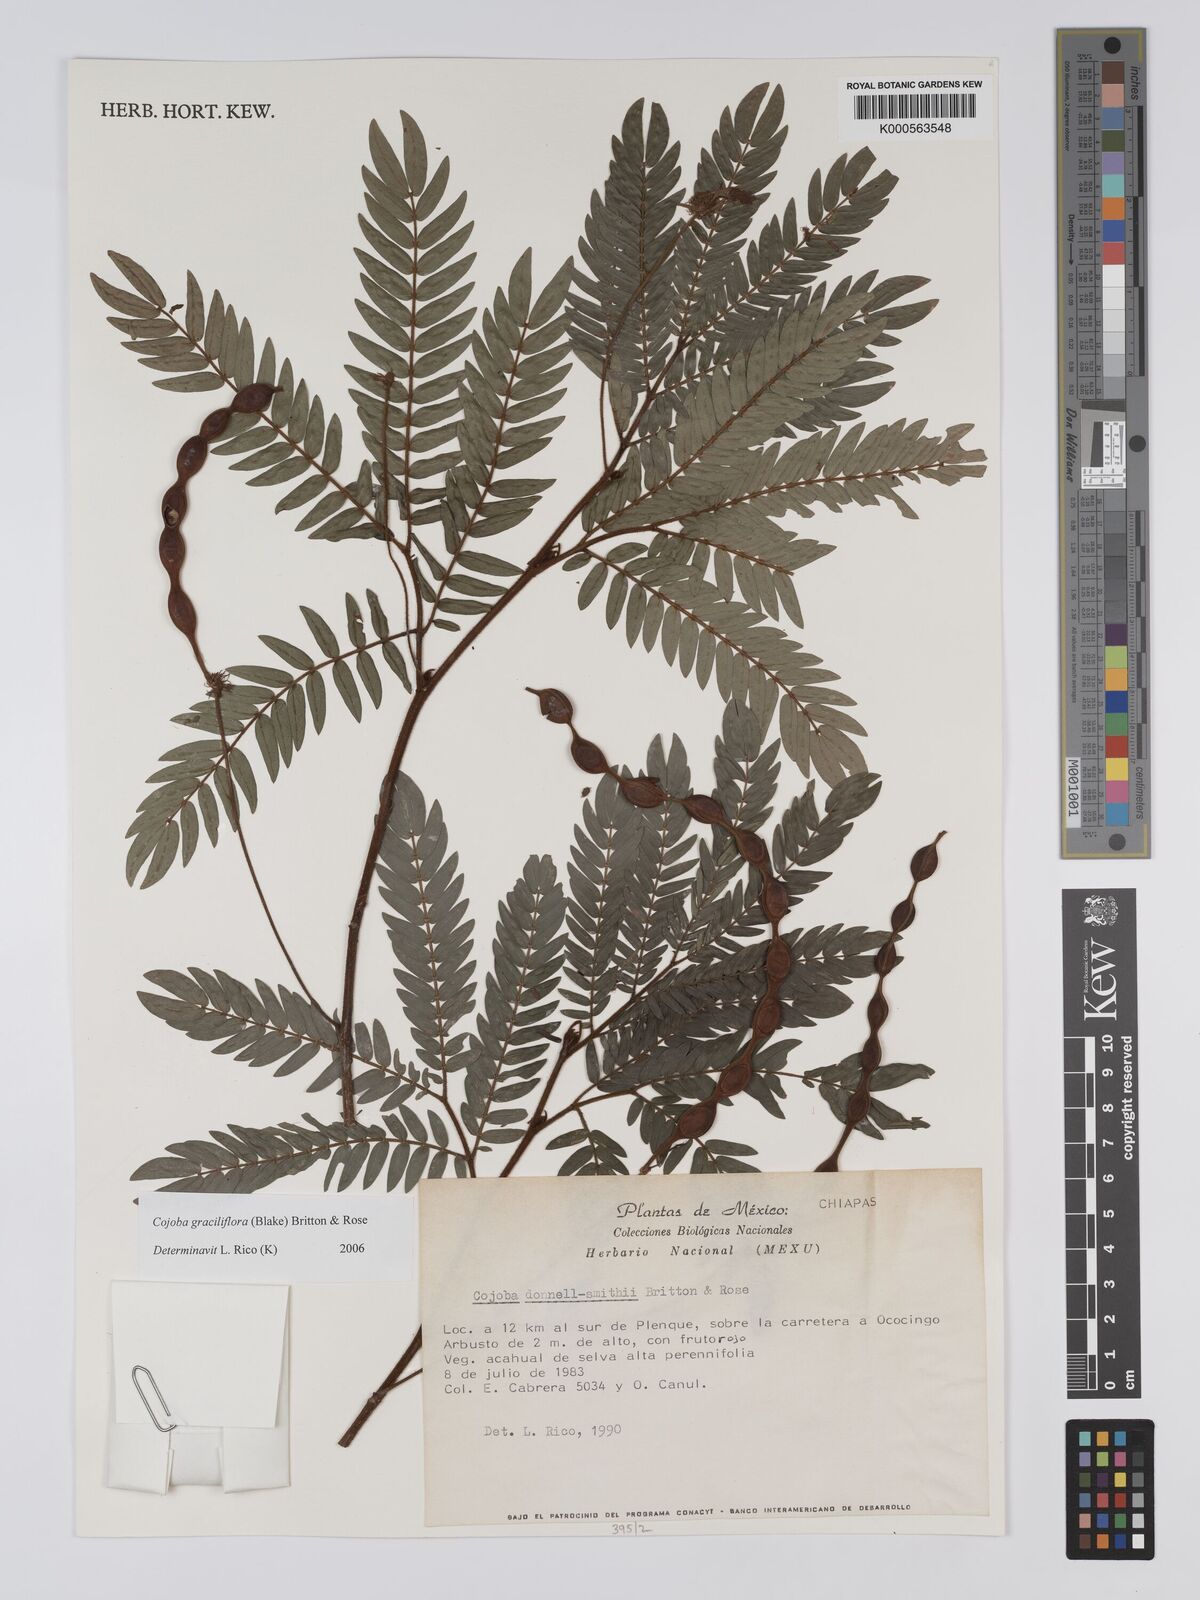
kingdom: Plantae
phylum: Tracheophyta
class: Magnoliopsida
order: Fabales
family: Fabaceae
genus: Cojoba
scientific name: Cojoba graciliflora
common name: Guadeloupe blackbead
